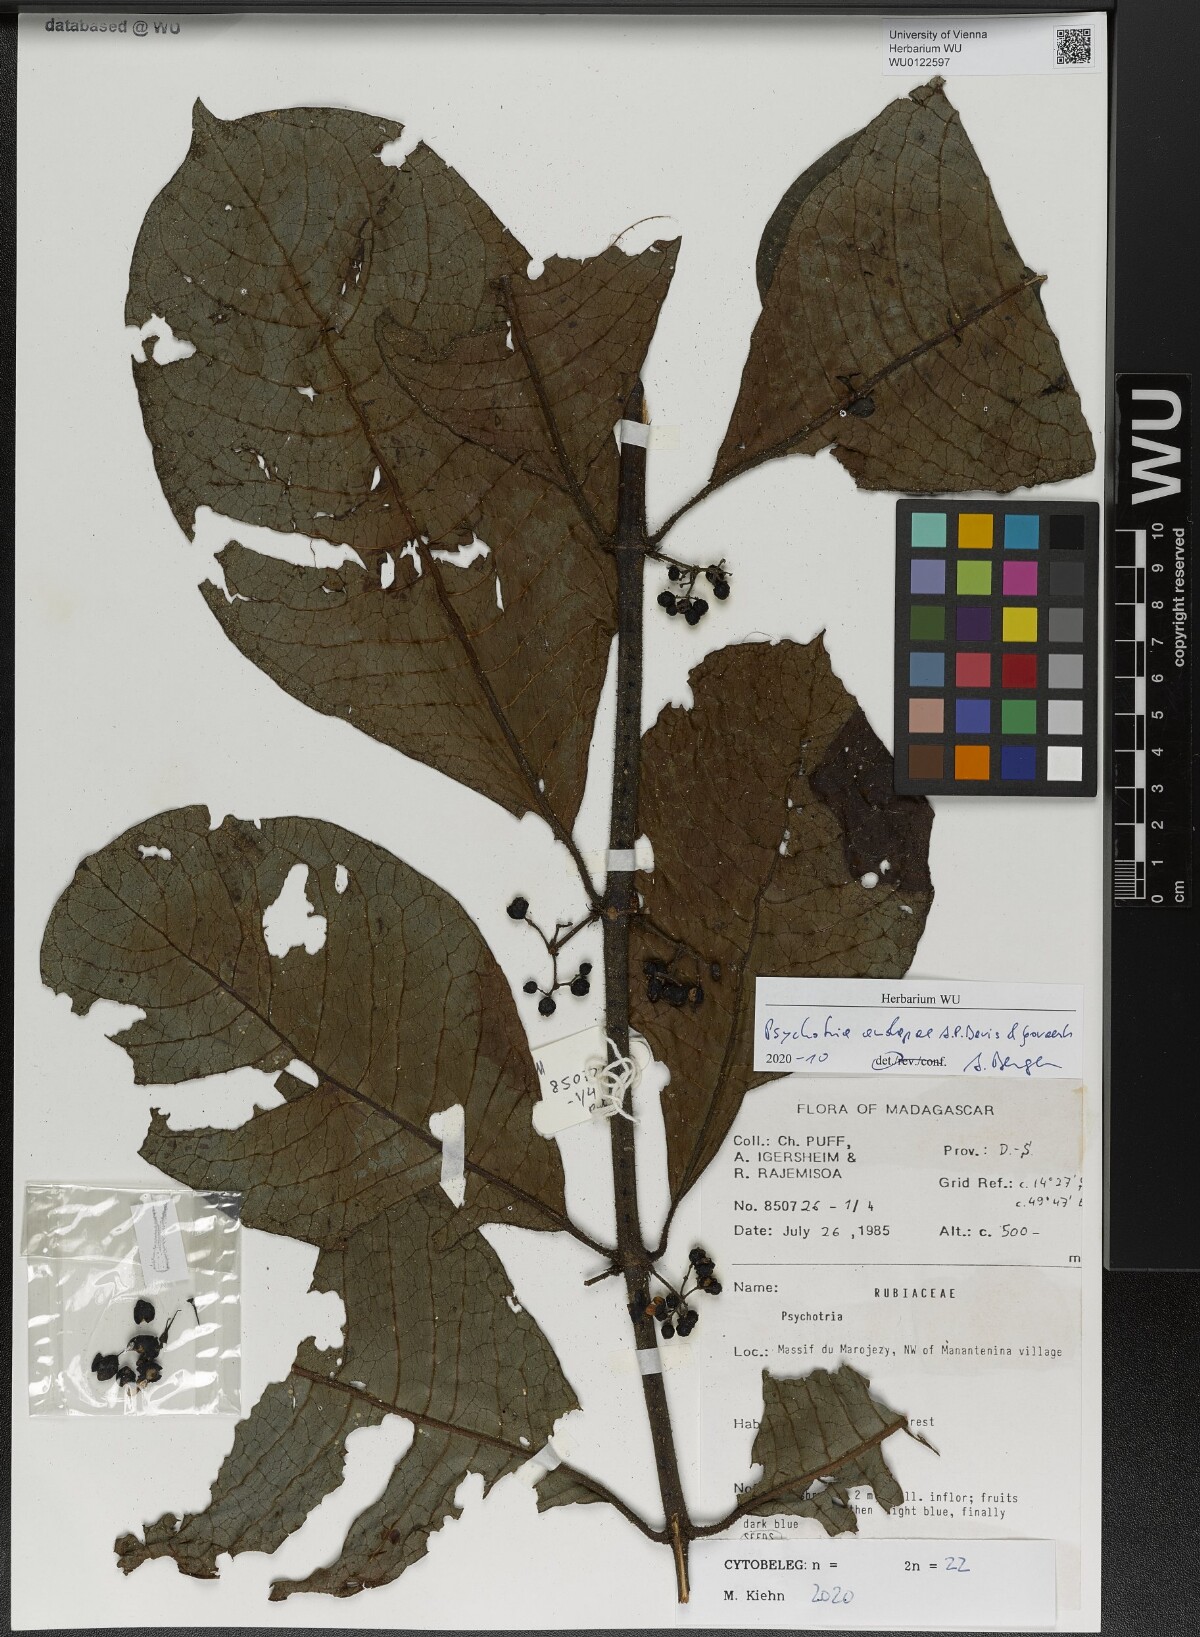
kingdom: Plantae
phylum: Tracheophyta
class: Magnoliopsida
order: Gentianales
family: Rubiaceae
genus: Psychotria
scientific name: Psychotria andapae
